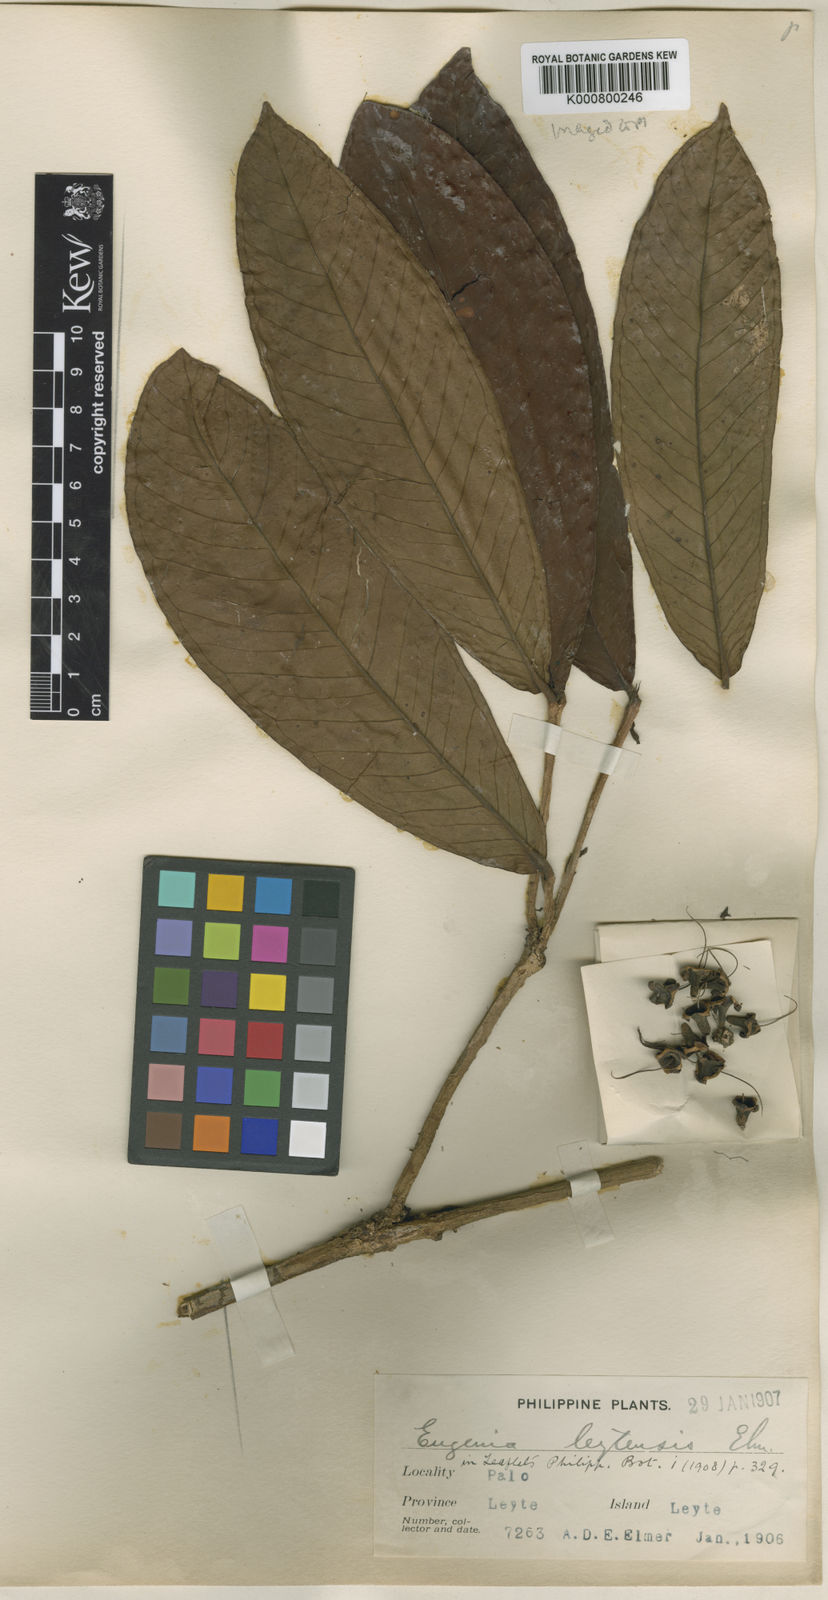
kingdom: Plantae
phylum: Tracheophyta
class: Magnoliopsida
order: Myrtales
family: Myrtaceae
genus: Syzygium
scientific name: Syzygium leytense
